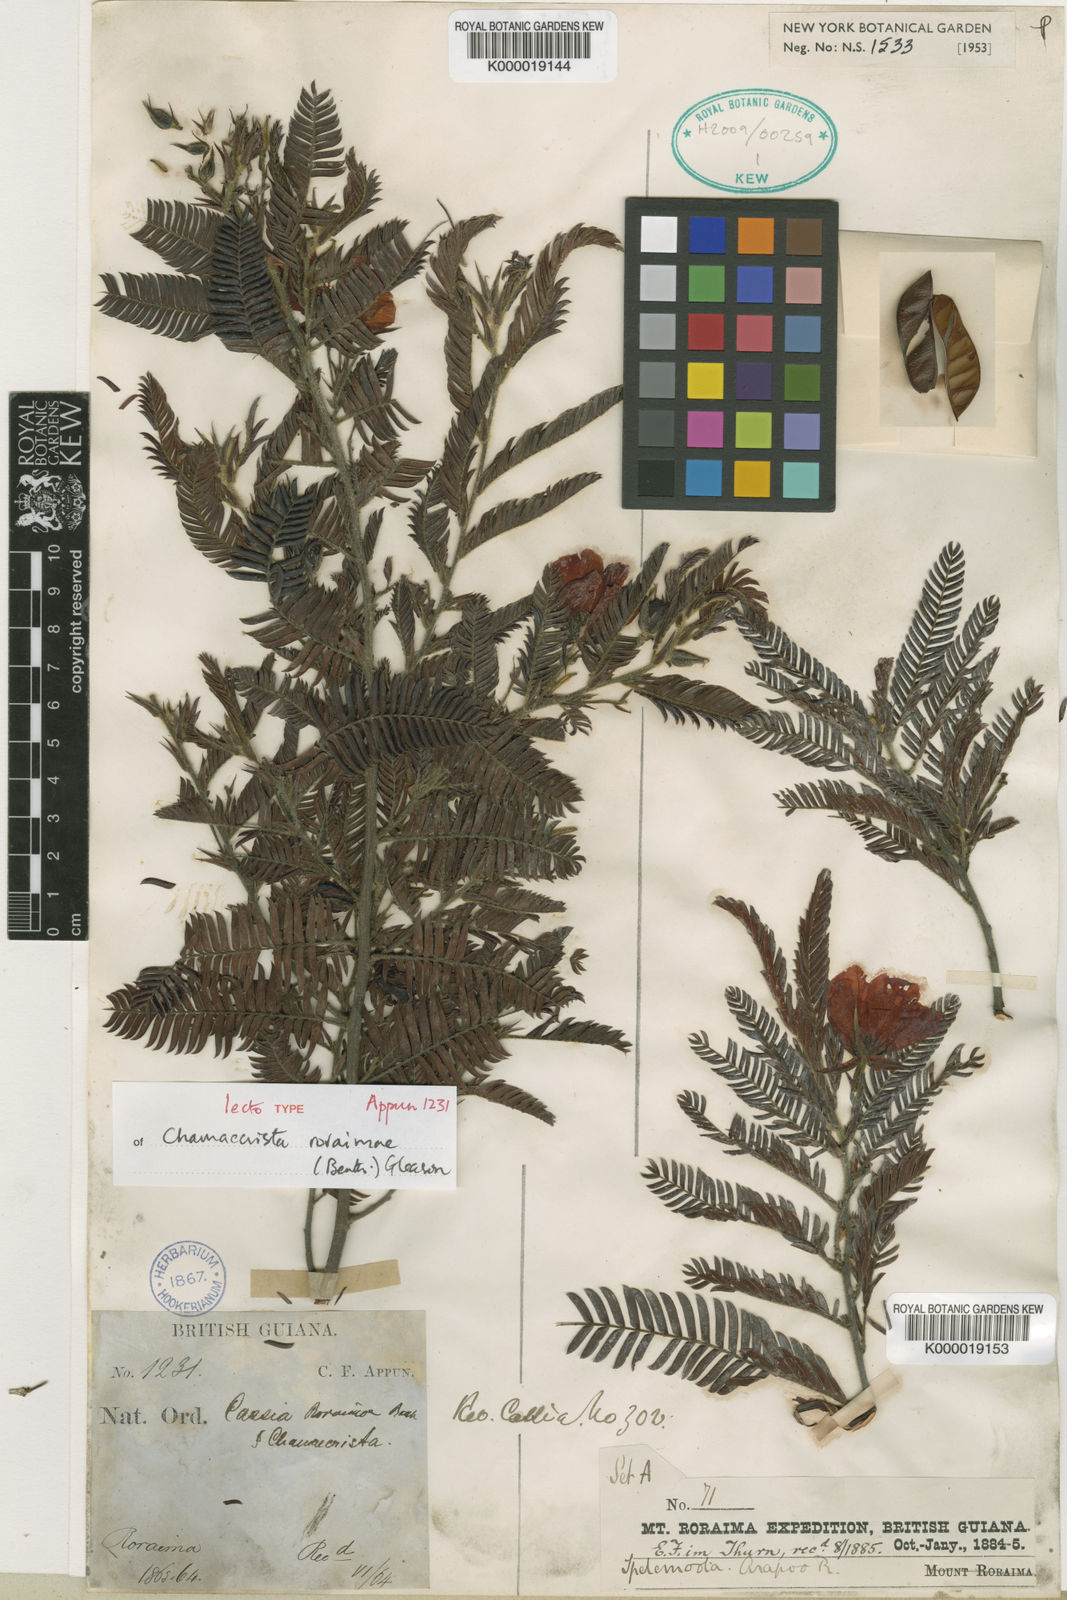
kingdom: Plantae
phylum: Tracheophyta
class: Magnoliopsida
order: Fabales
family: Fabaceae
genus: Chamaecrista
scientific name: Chamaecrista roraimae
